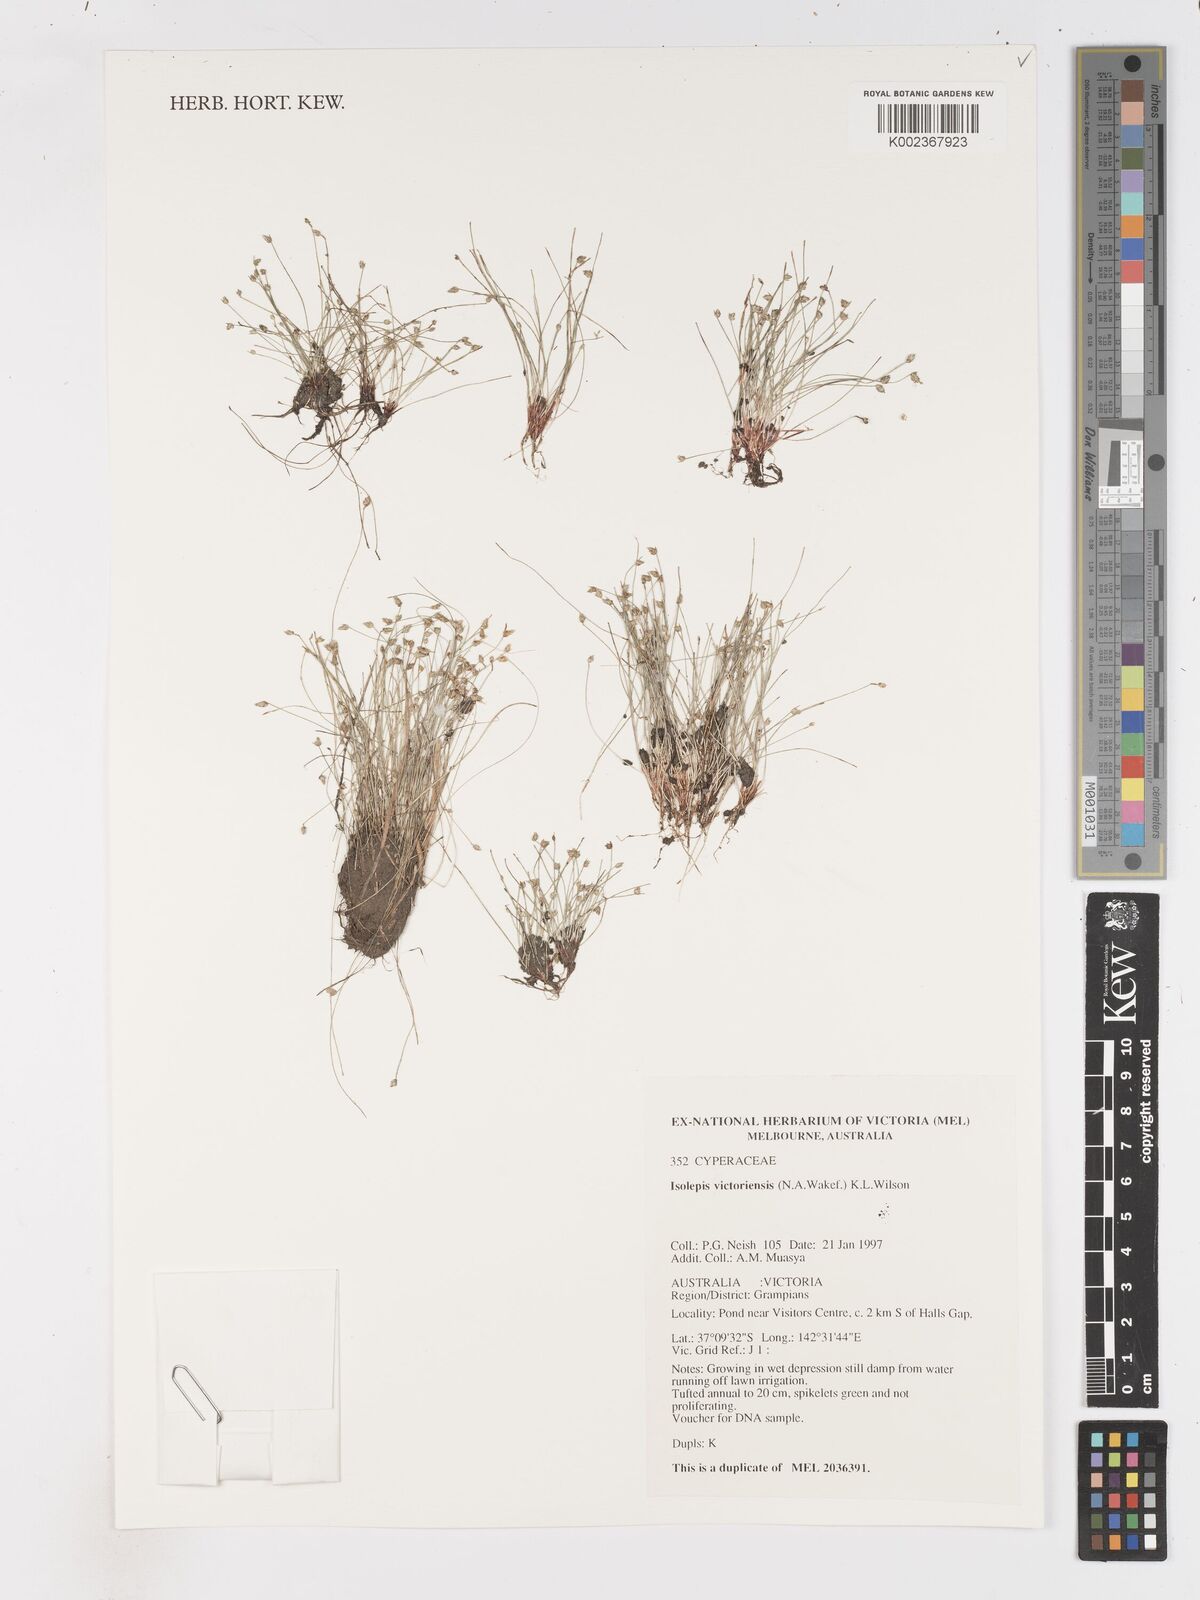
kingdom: Plantae
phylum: Tracheophyta
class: Liliopsida
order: Poales
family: Cyperaceae
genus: Isolepis
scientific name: Isolepis victoriensis
